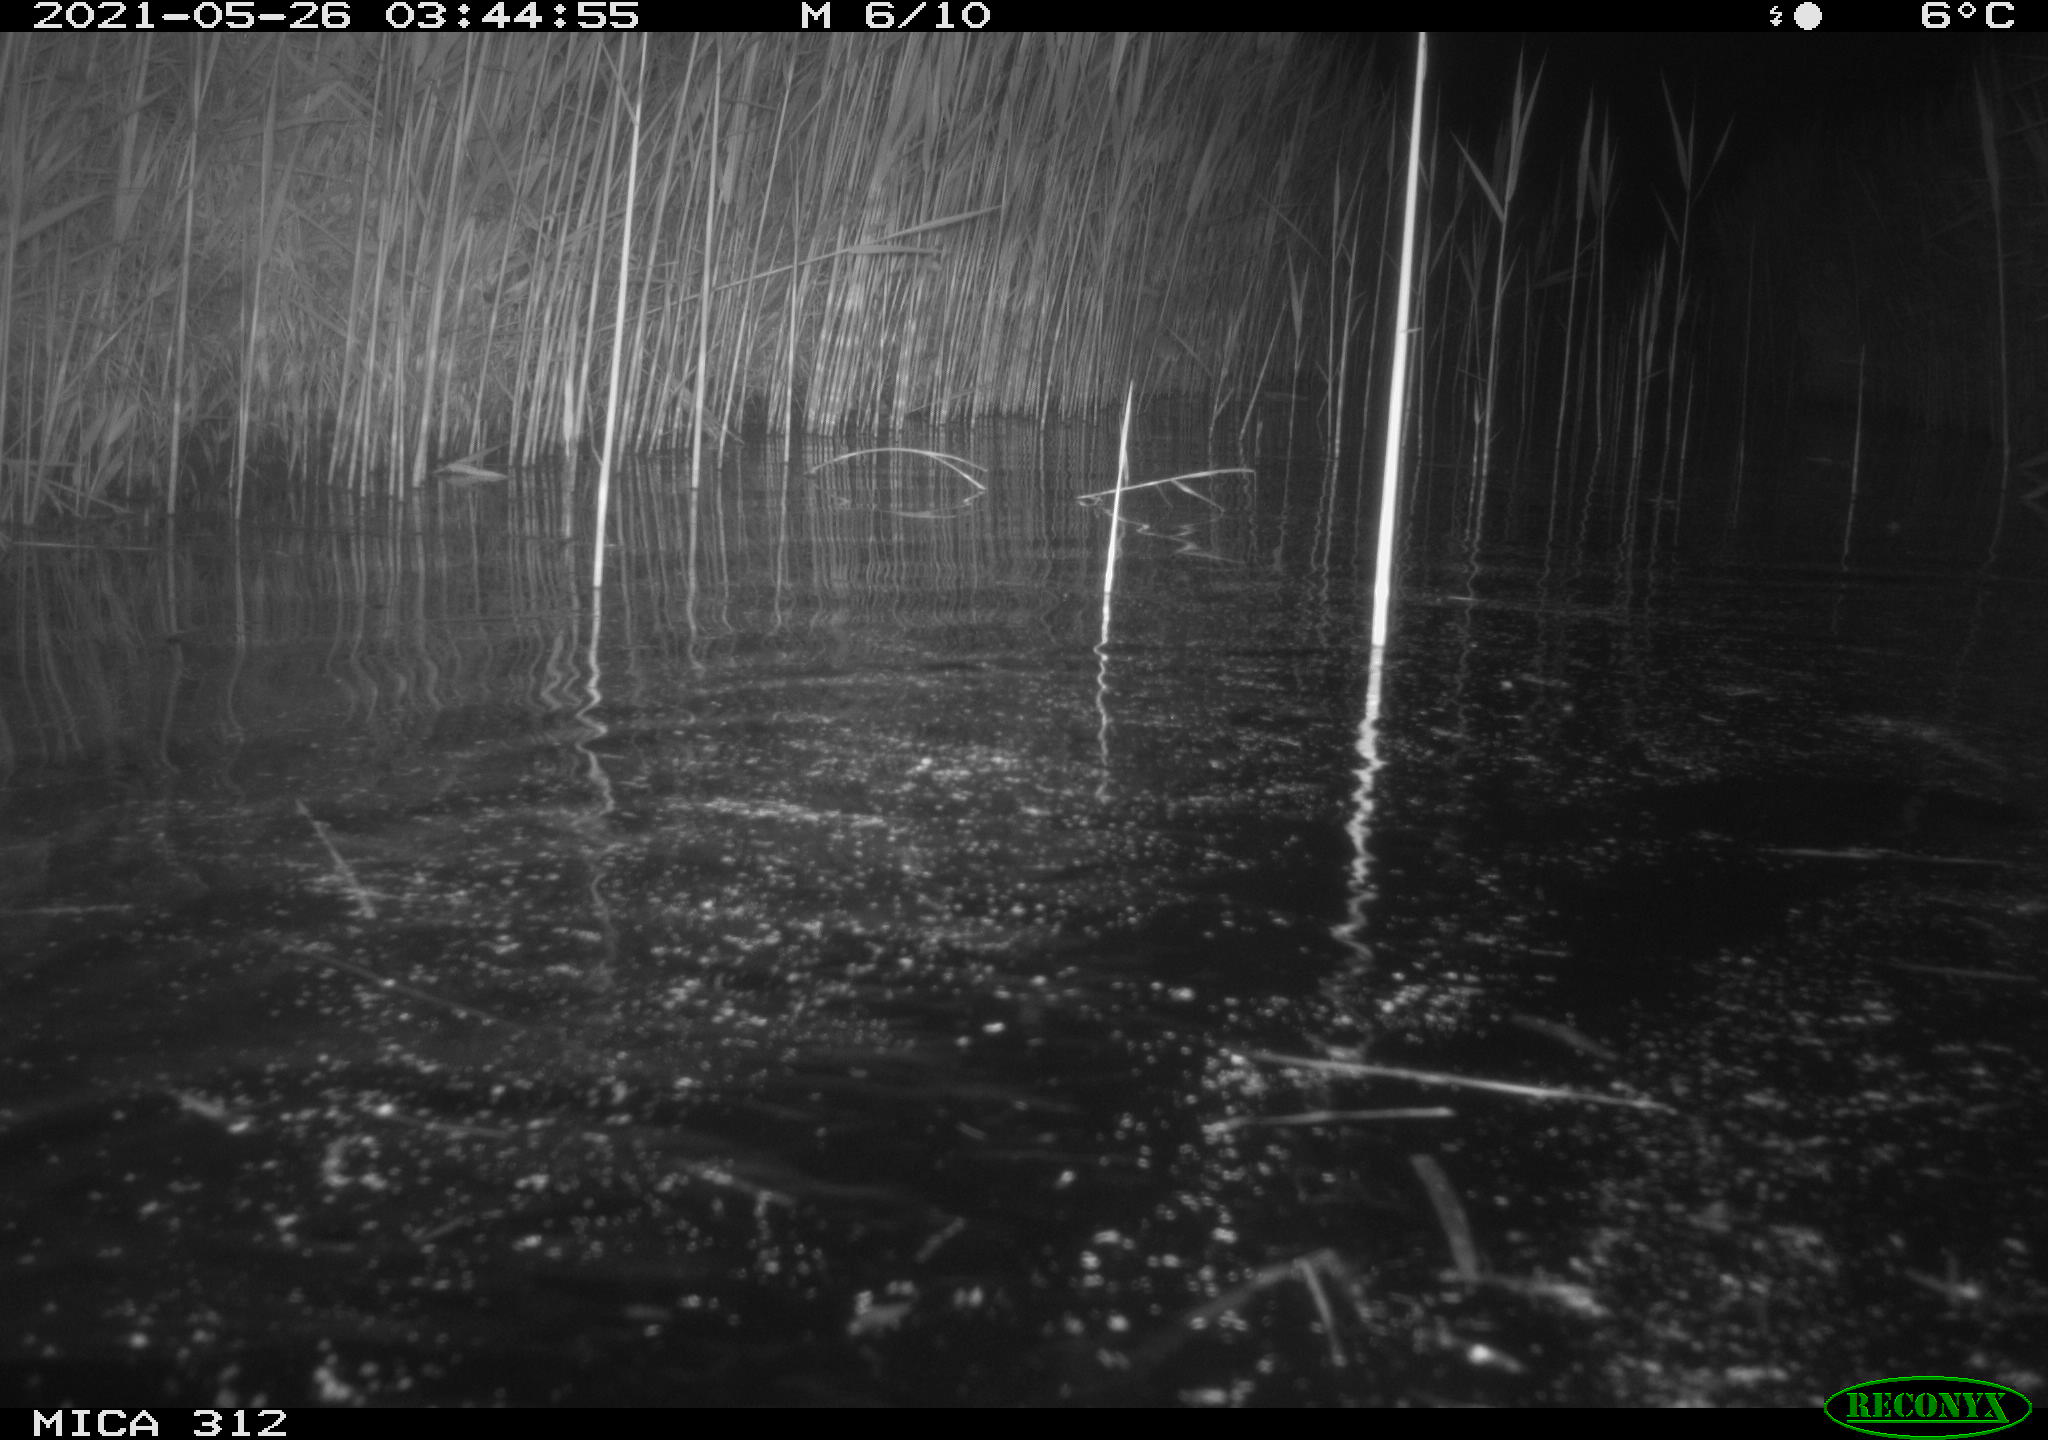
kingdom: Animalia
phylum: Chordata
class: Mammalia
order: Rodentia
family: Cricetidae
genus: Ondatra
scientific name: Ondatra zibethicus
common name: Muskrat
